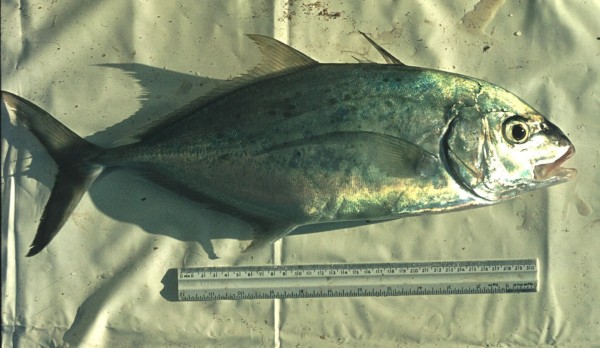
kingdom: Animalia
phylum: Chordata
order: Perciformes
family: Carangidae
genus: Caranx
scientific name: Caranx papuensis
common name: Brassy trevally
